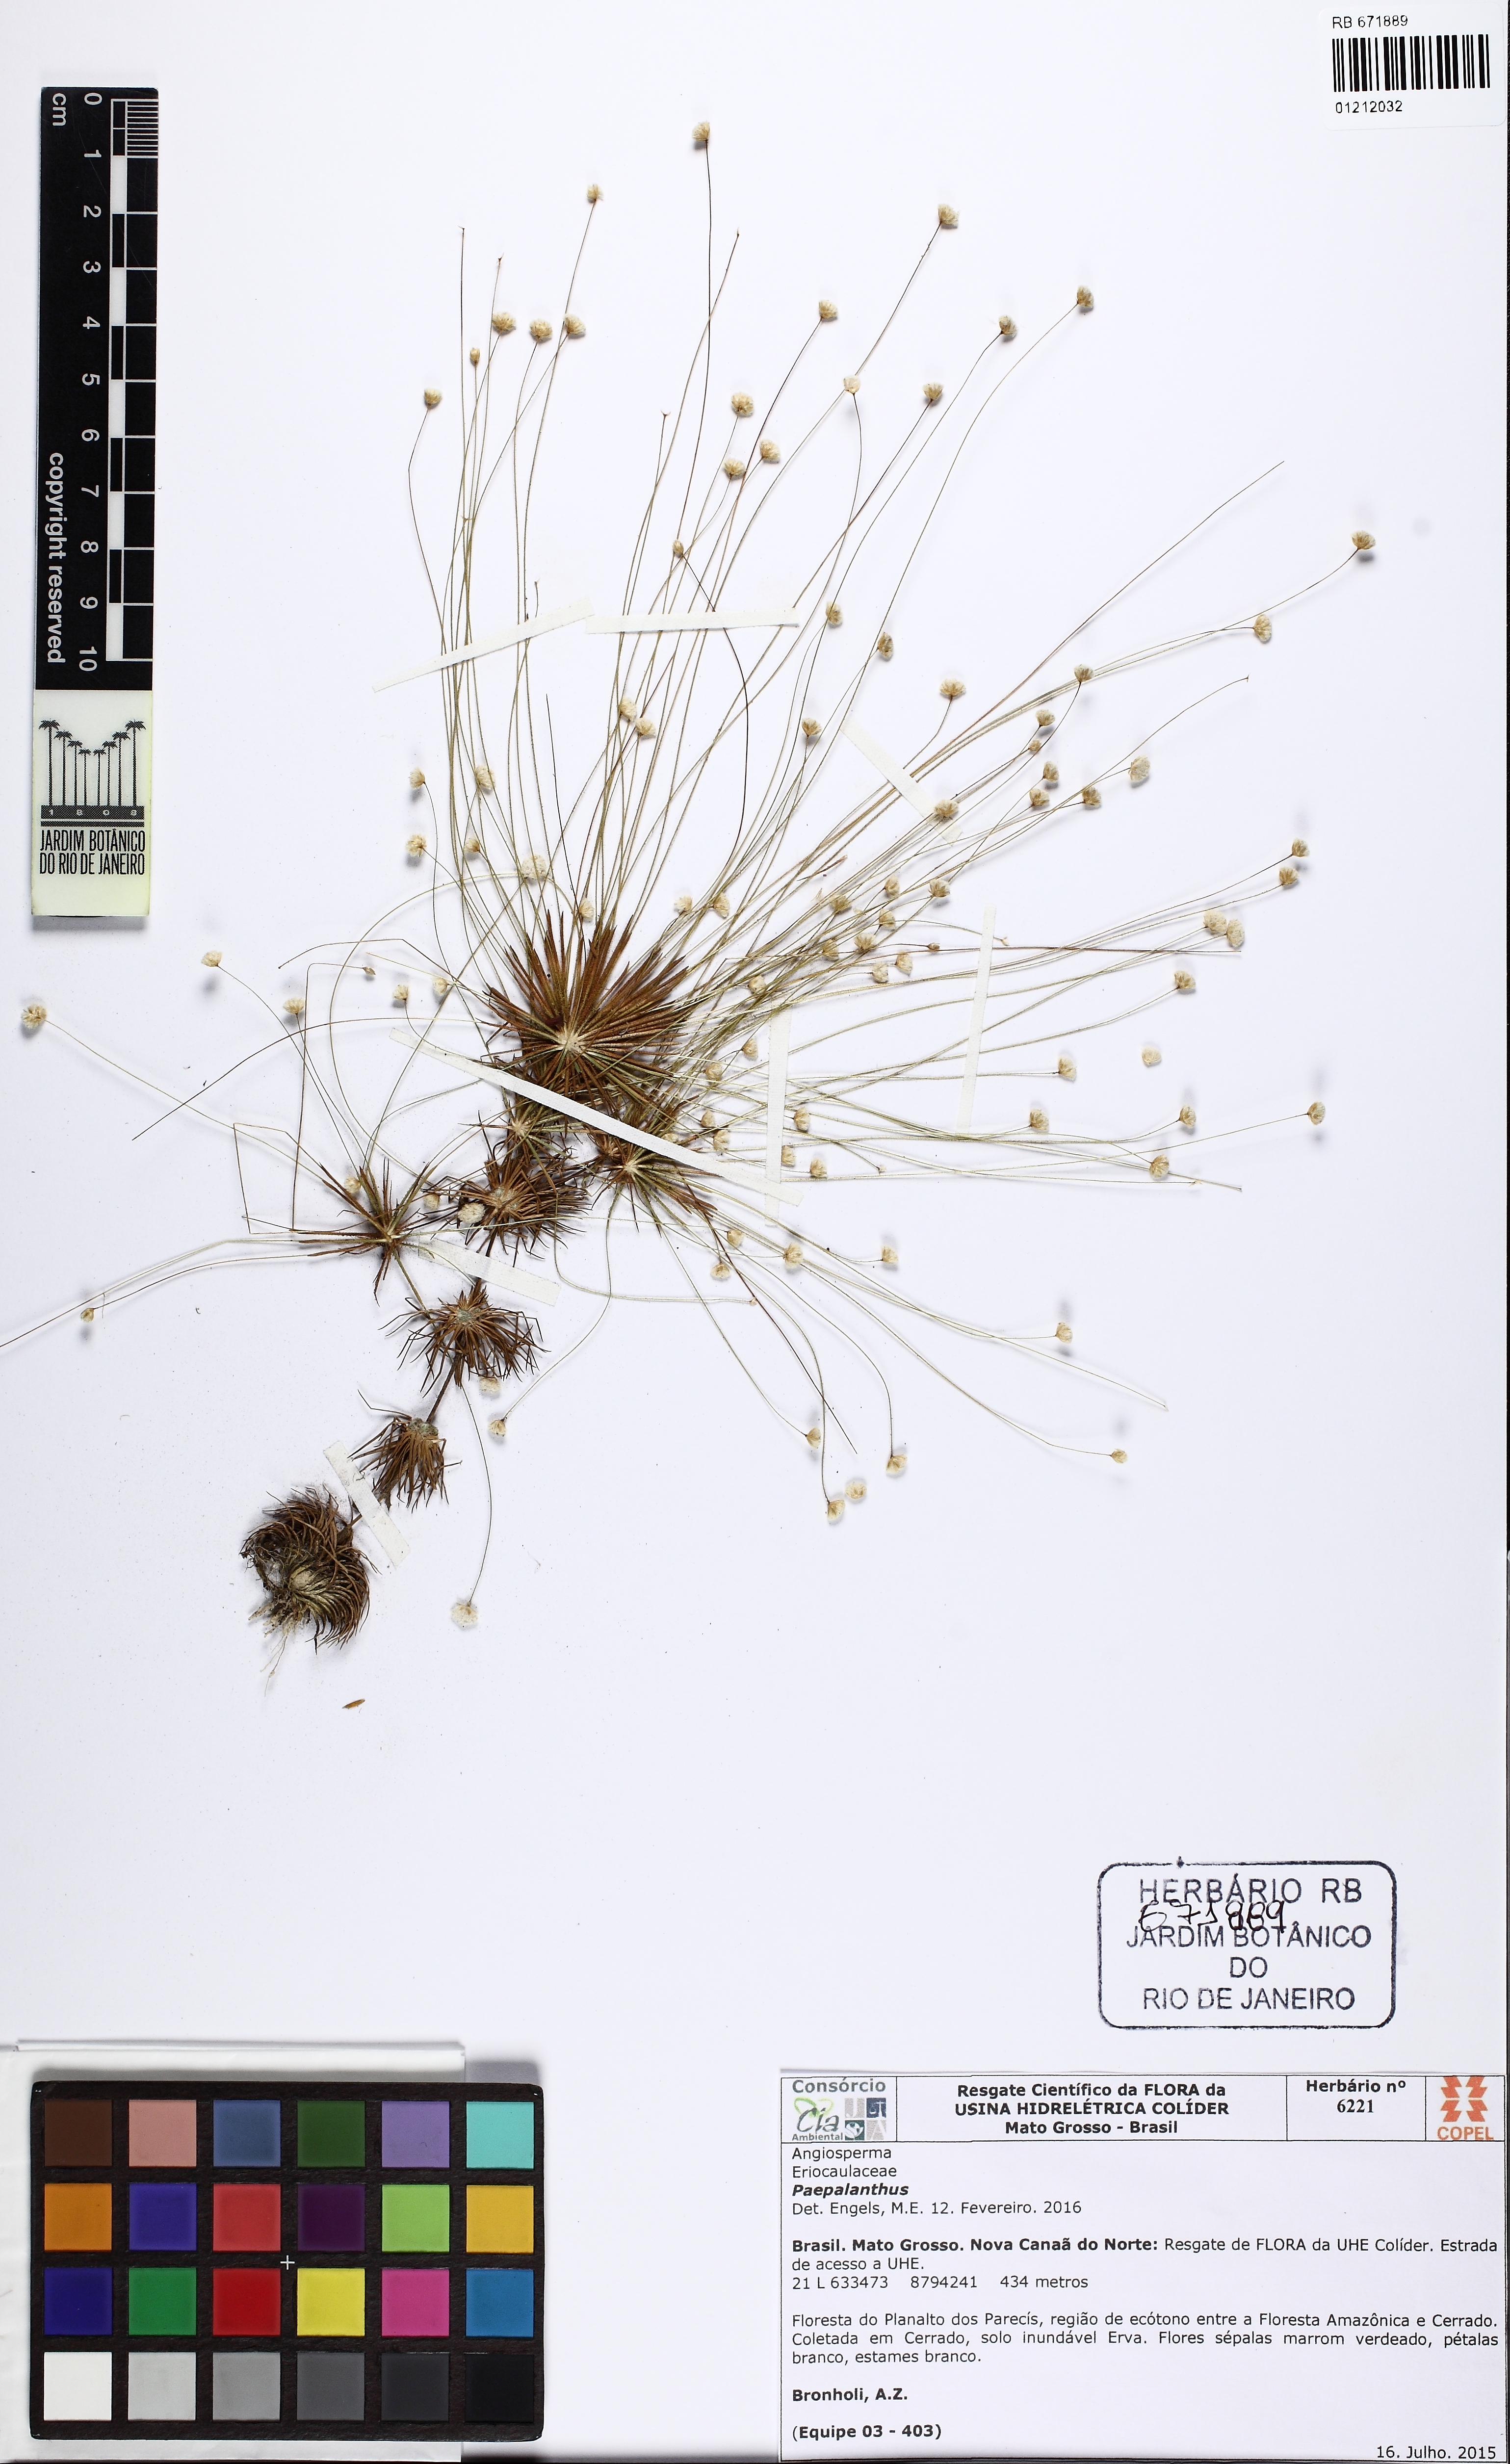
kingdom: Plantae
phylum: Tracheophyta
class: Liliopsida
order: Poales
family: Eriocaulaceae
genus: Syngonanthus
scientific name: Syngonanthus humboldtii
